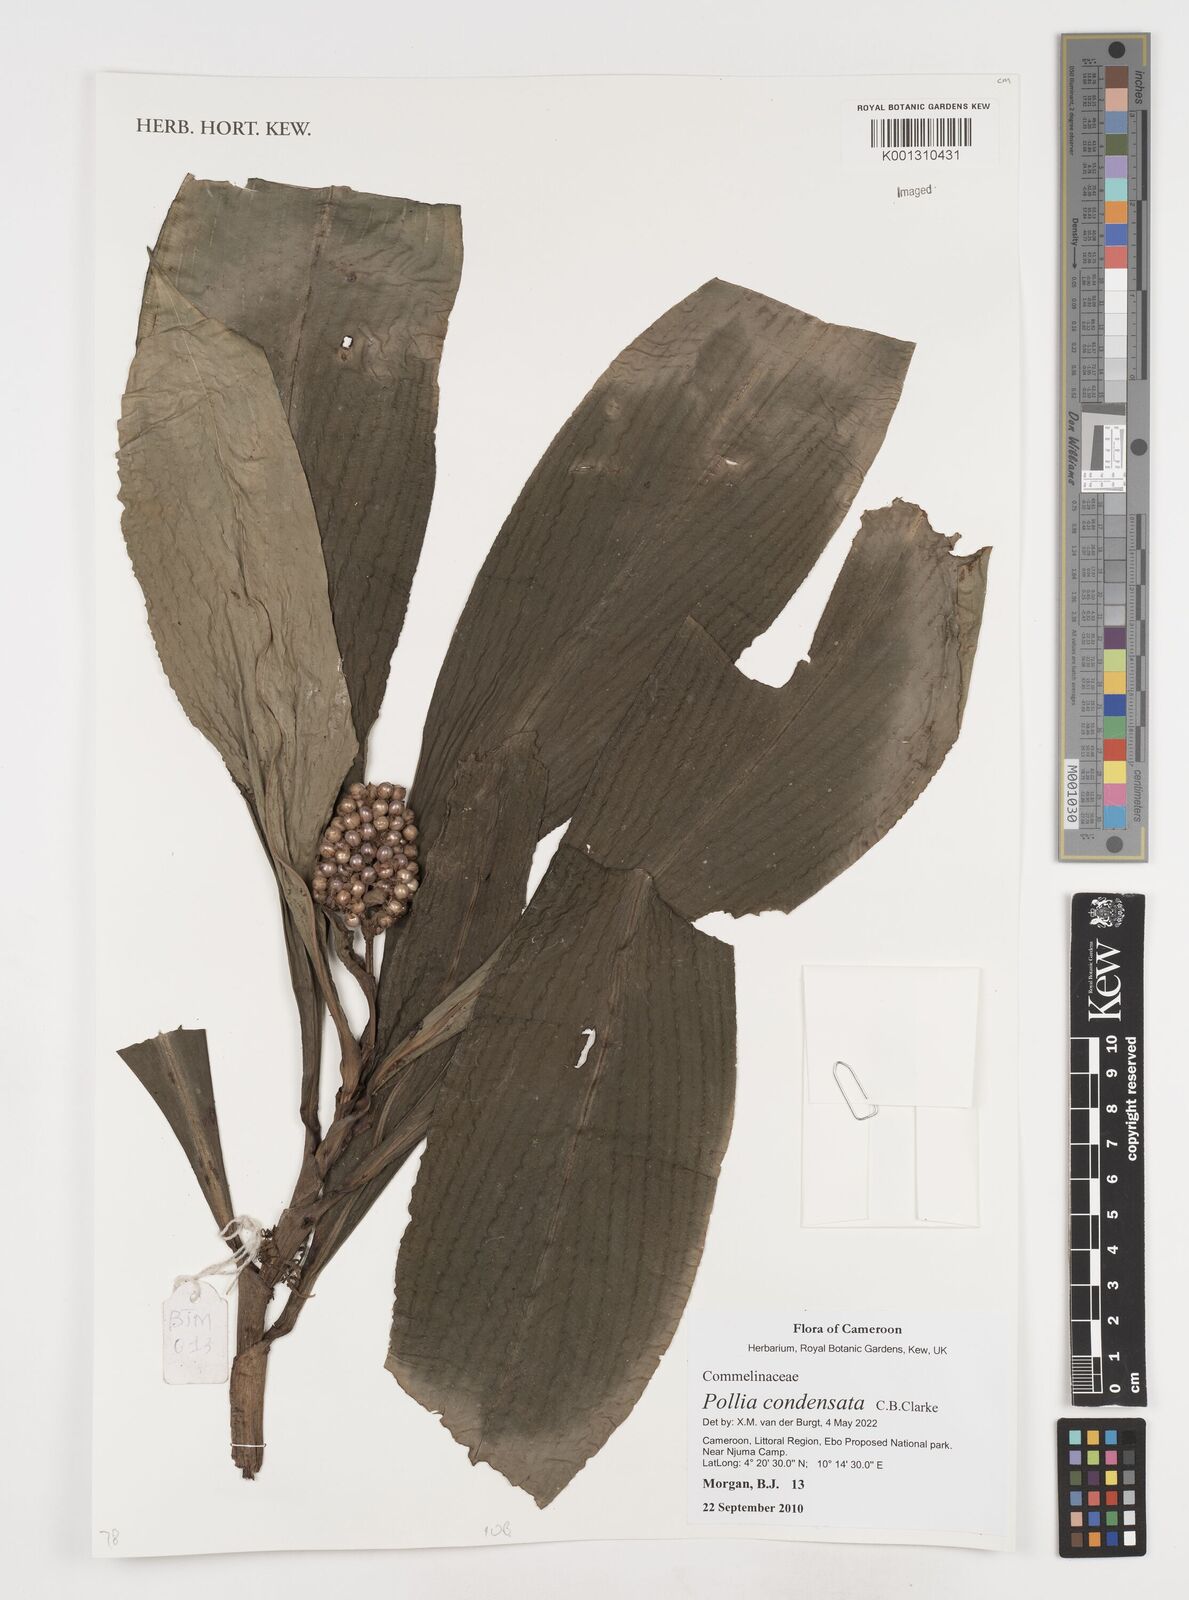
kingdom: Plantae
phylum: Tracheophyta
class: Liliopsida
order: Commelinales
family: Commelinaceae
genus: Pollia
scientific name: Pollia condensata
